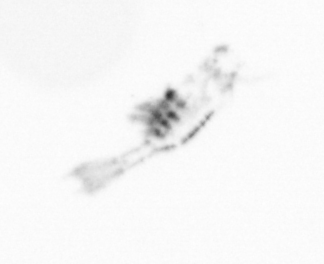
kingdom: Animalia
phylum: Arthropoda
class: Copepoda
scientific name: Copepoda
